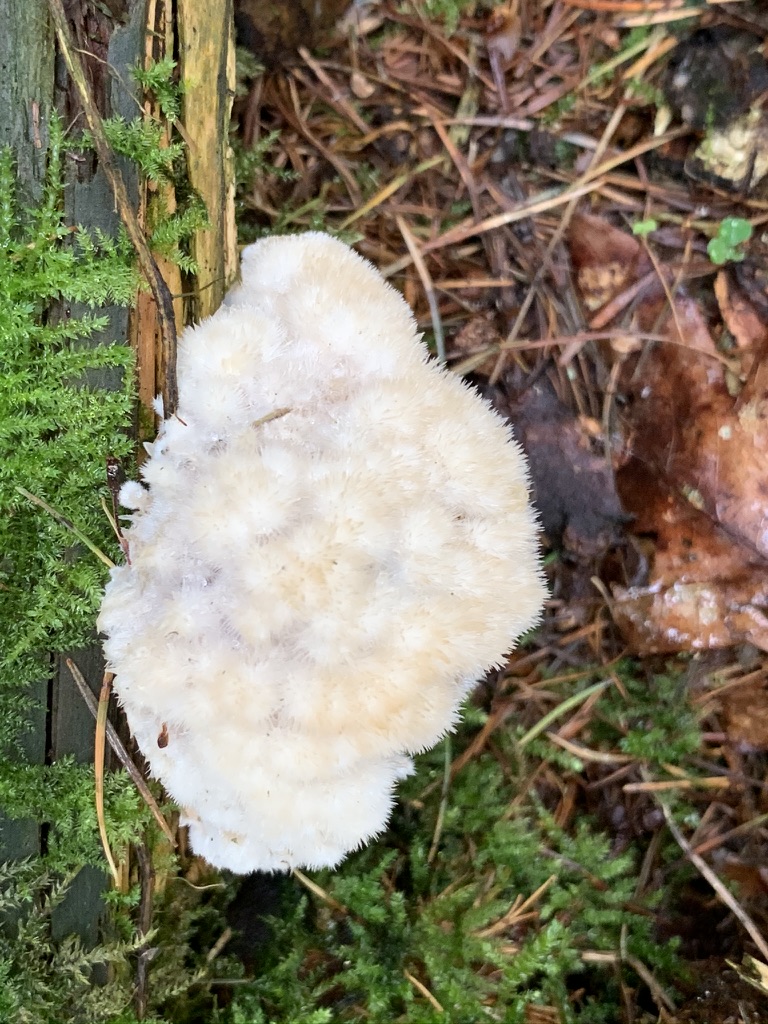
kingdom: Fungi
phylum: Basidiomycota
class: Agaricomycetes
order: Polyporales
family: Dacryobolaceae
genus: Postia
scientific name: Postia ptychogaster
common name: støvende kødporesvamp
